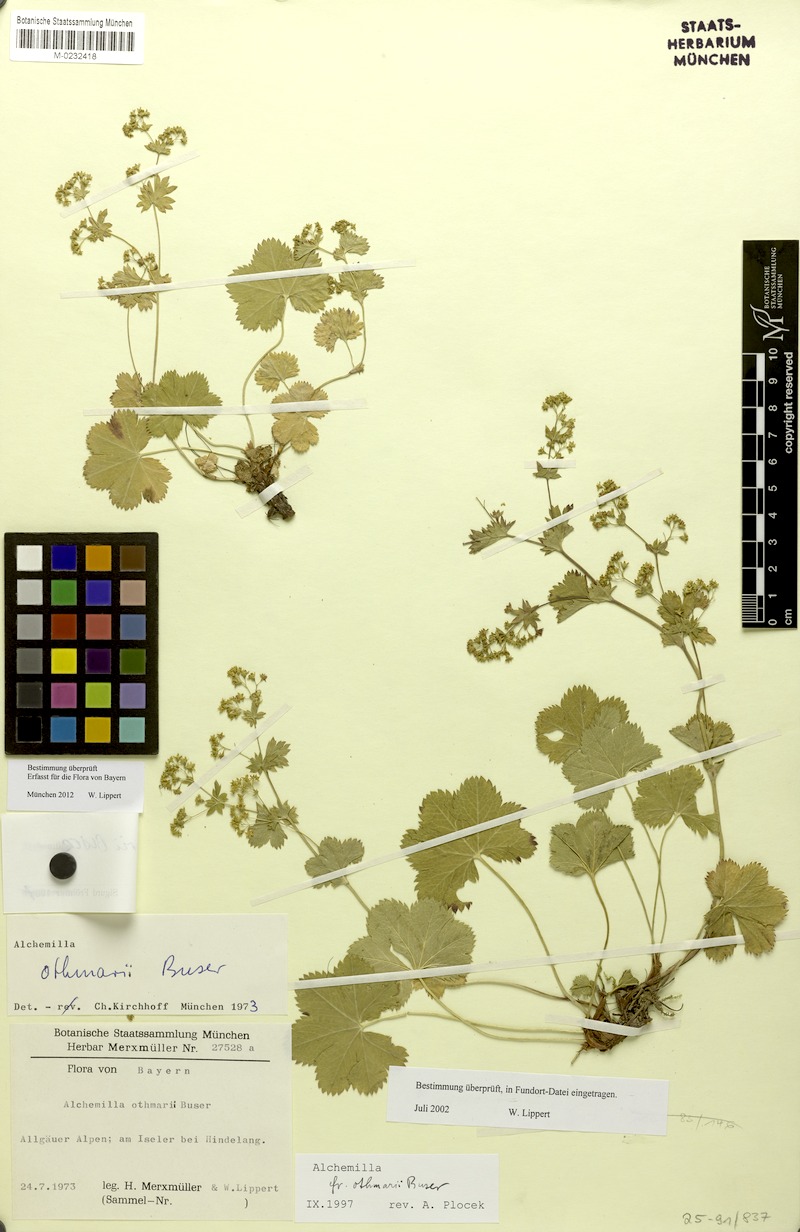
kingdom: Plantae
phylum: Tracheophyta
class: Magnoliopsida
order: Rosales
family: Rosaceae
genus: Alchemilla
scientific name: Alchemilla othmarii
